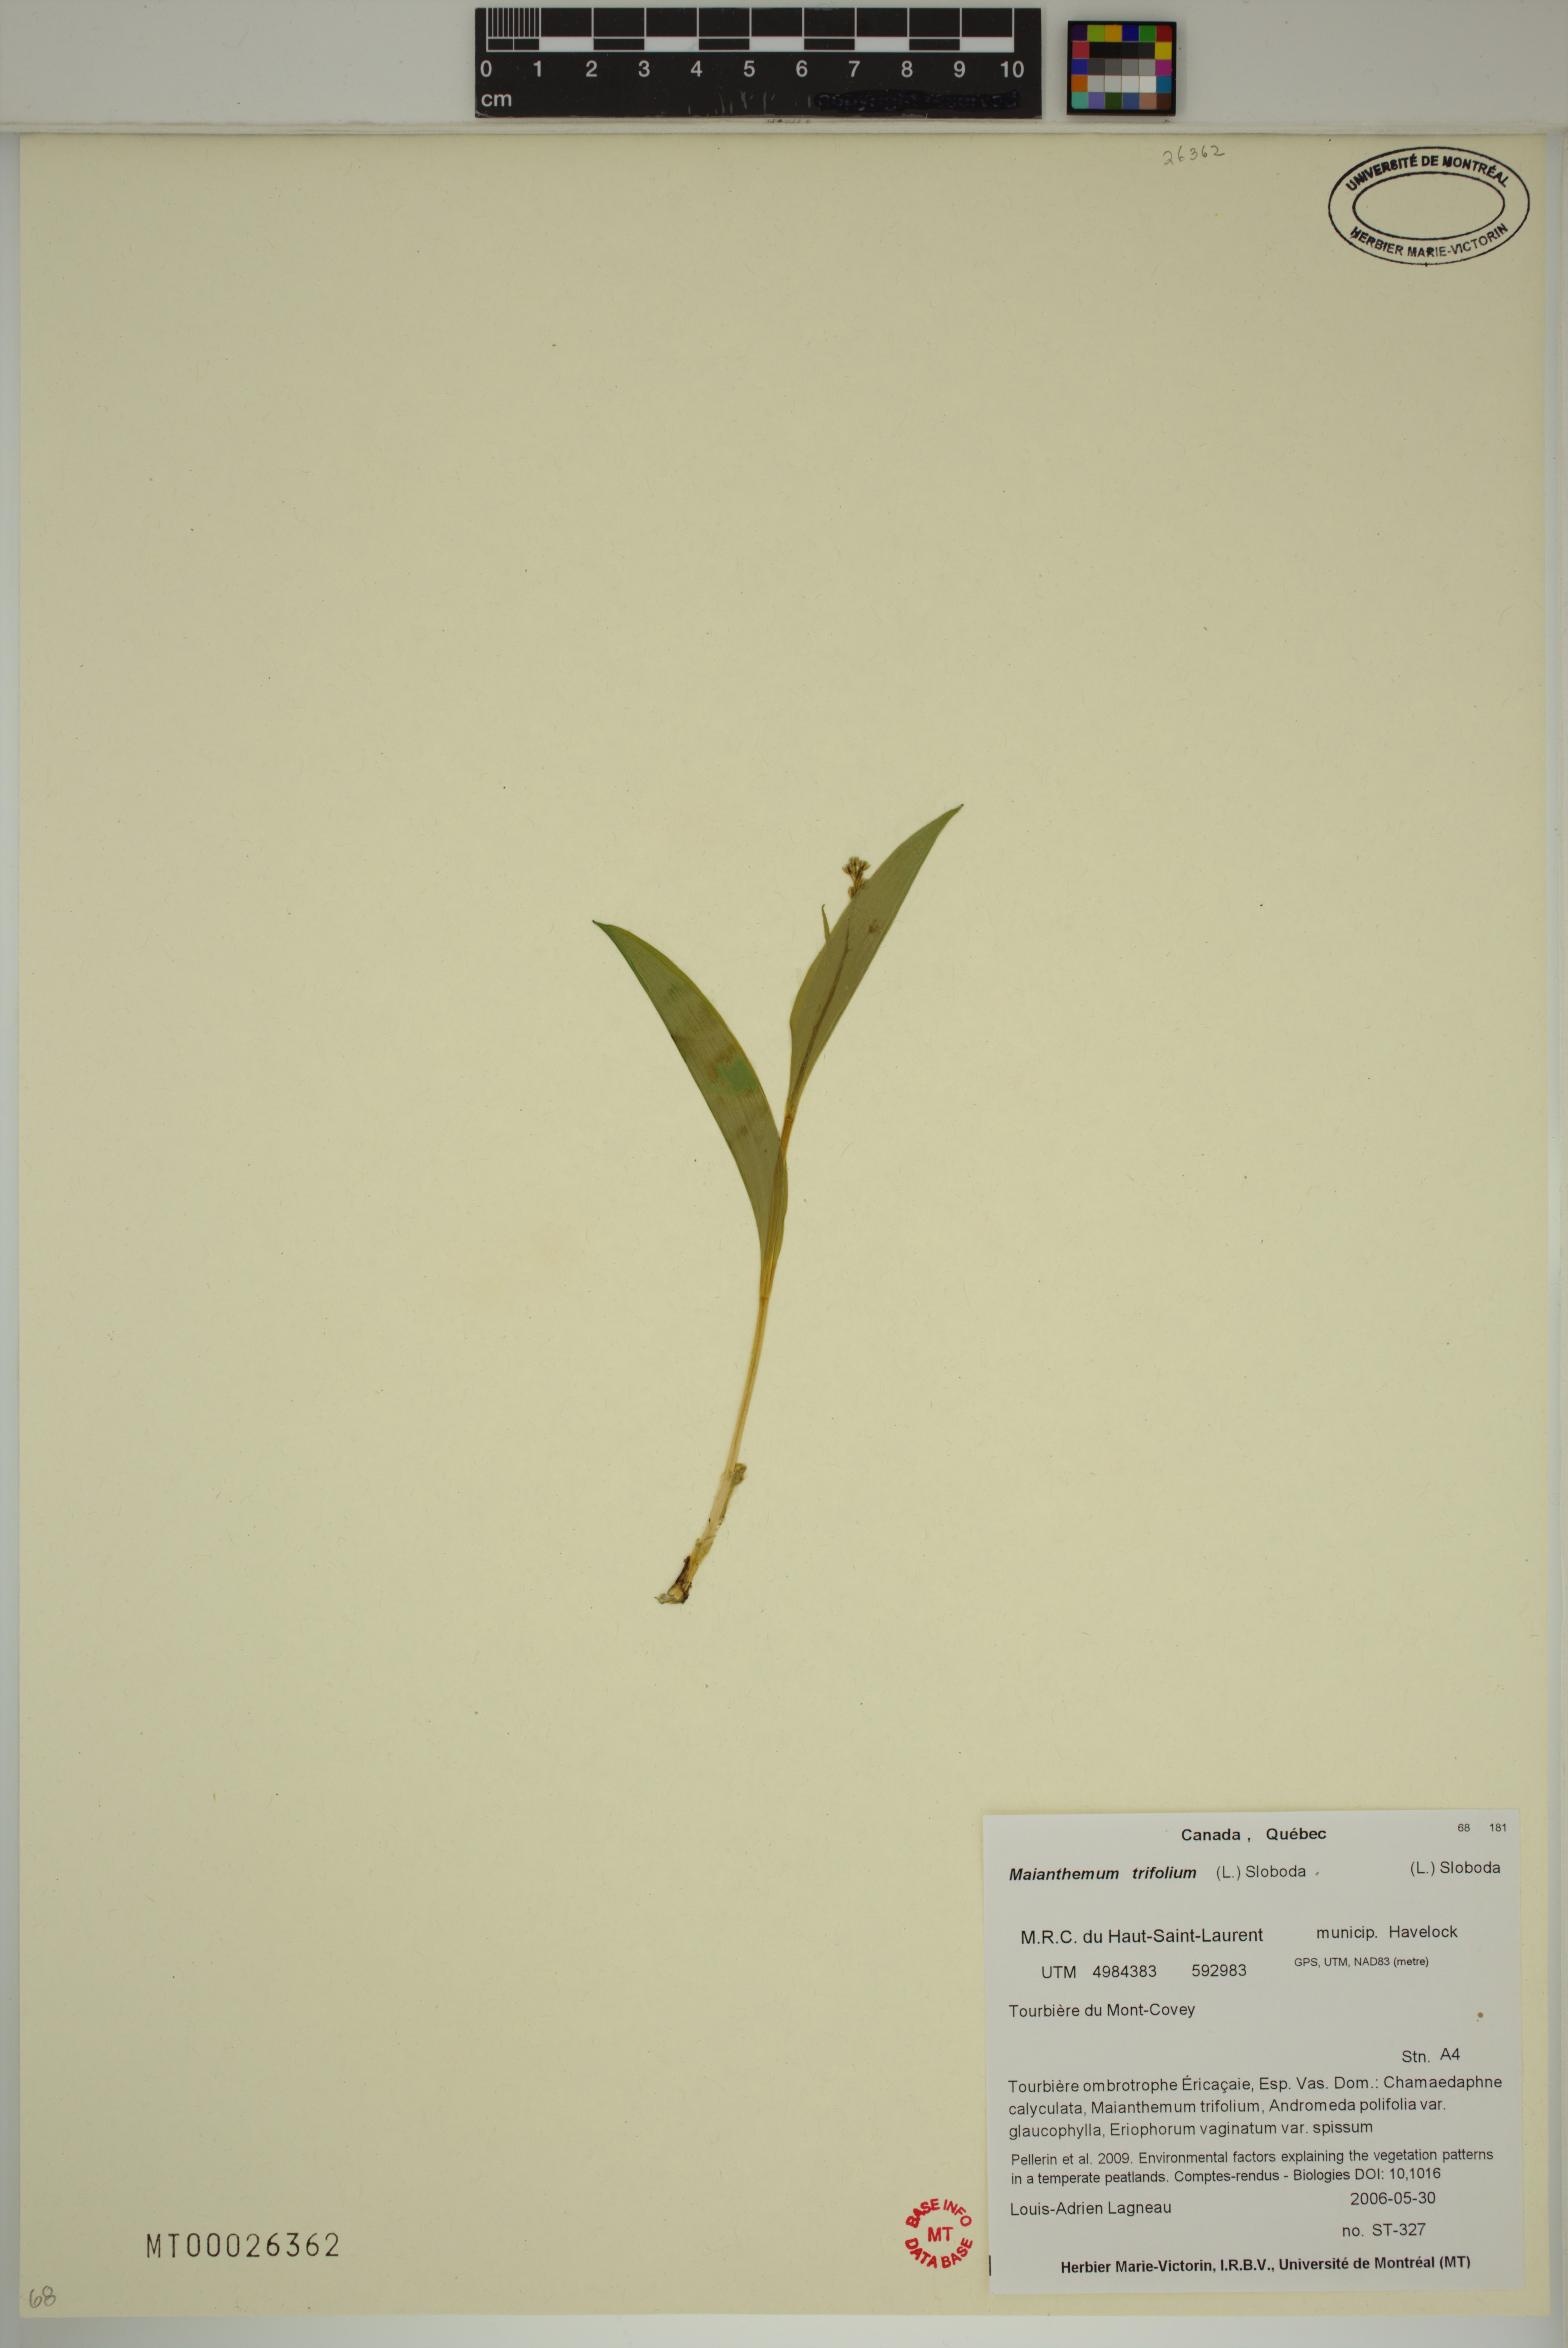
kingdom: Plantae
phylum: Tracheophyta
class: Liliopsida
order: Asparagales
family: Asparagaceae
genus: Maianthemum
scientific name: Maianthemum trifolium
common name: Swamp false solomon's seal
